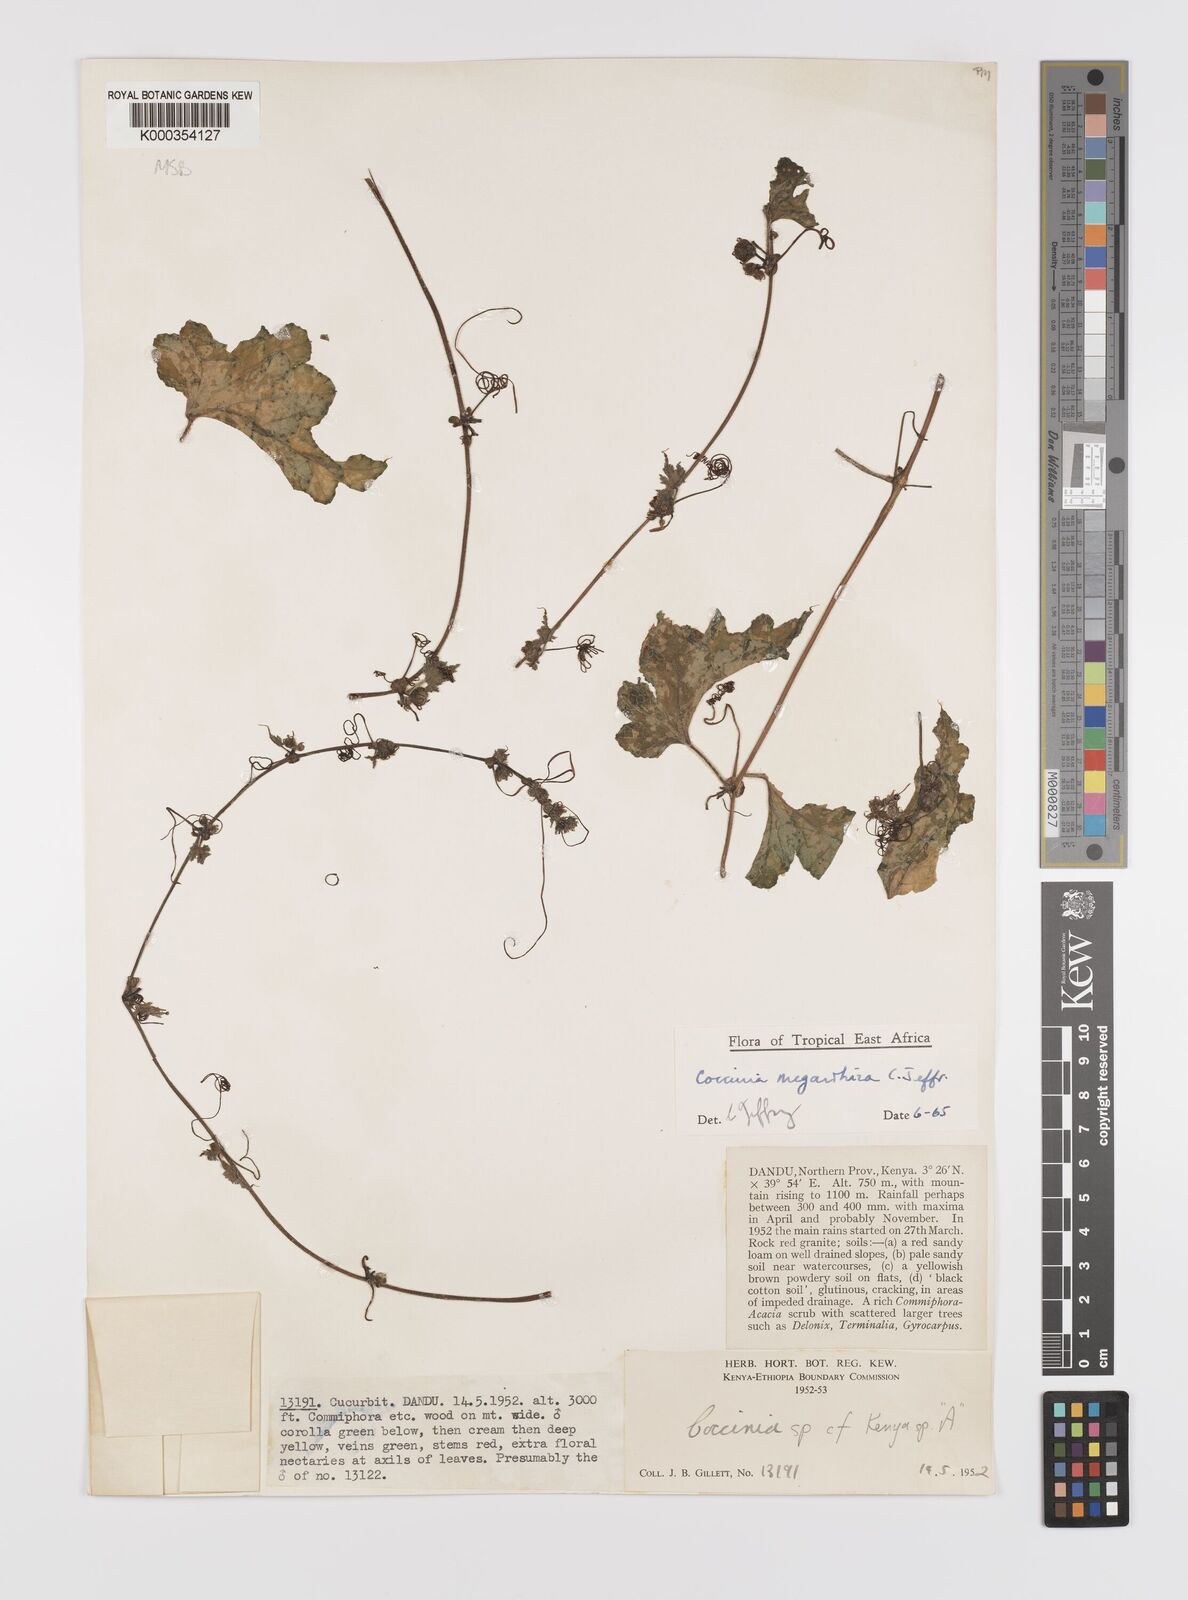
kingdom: Plantae
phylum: Tracheophyta
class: Magnoliopsida
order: Cucurbitales
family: Cucurbitaceae
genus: Coccinia
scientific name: Coccinia megarrhiza
